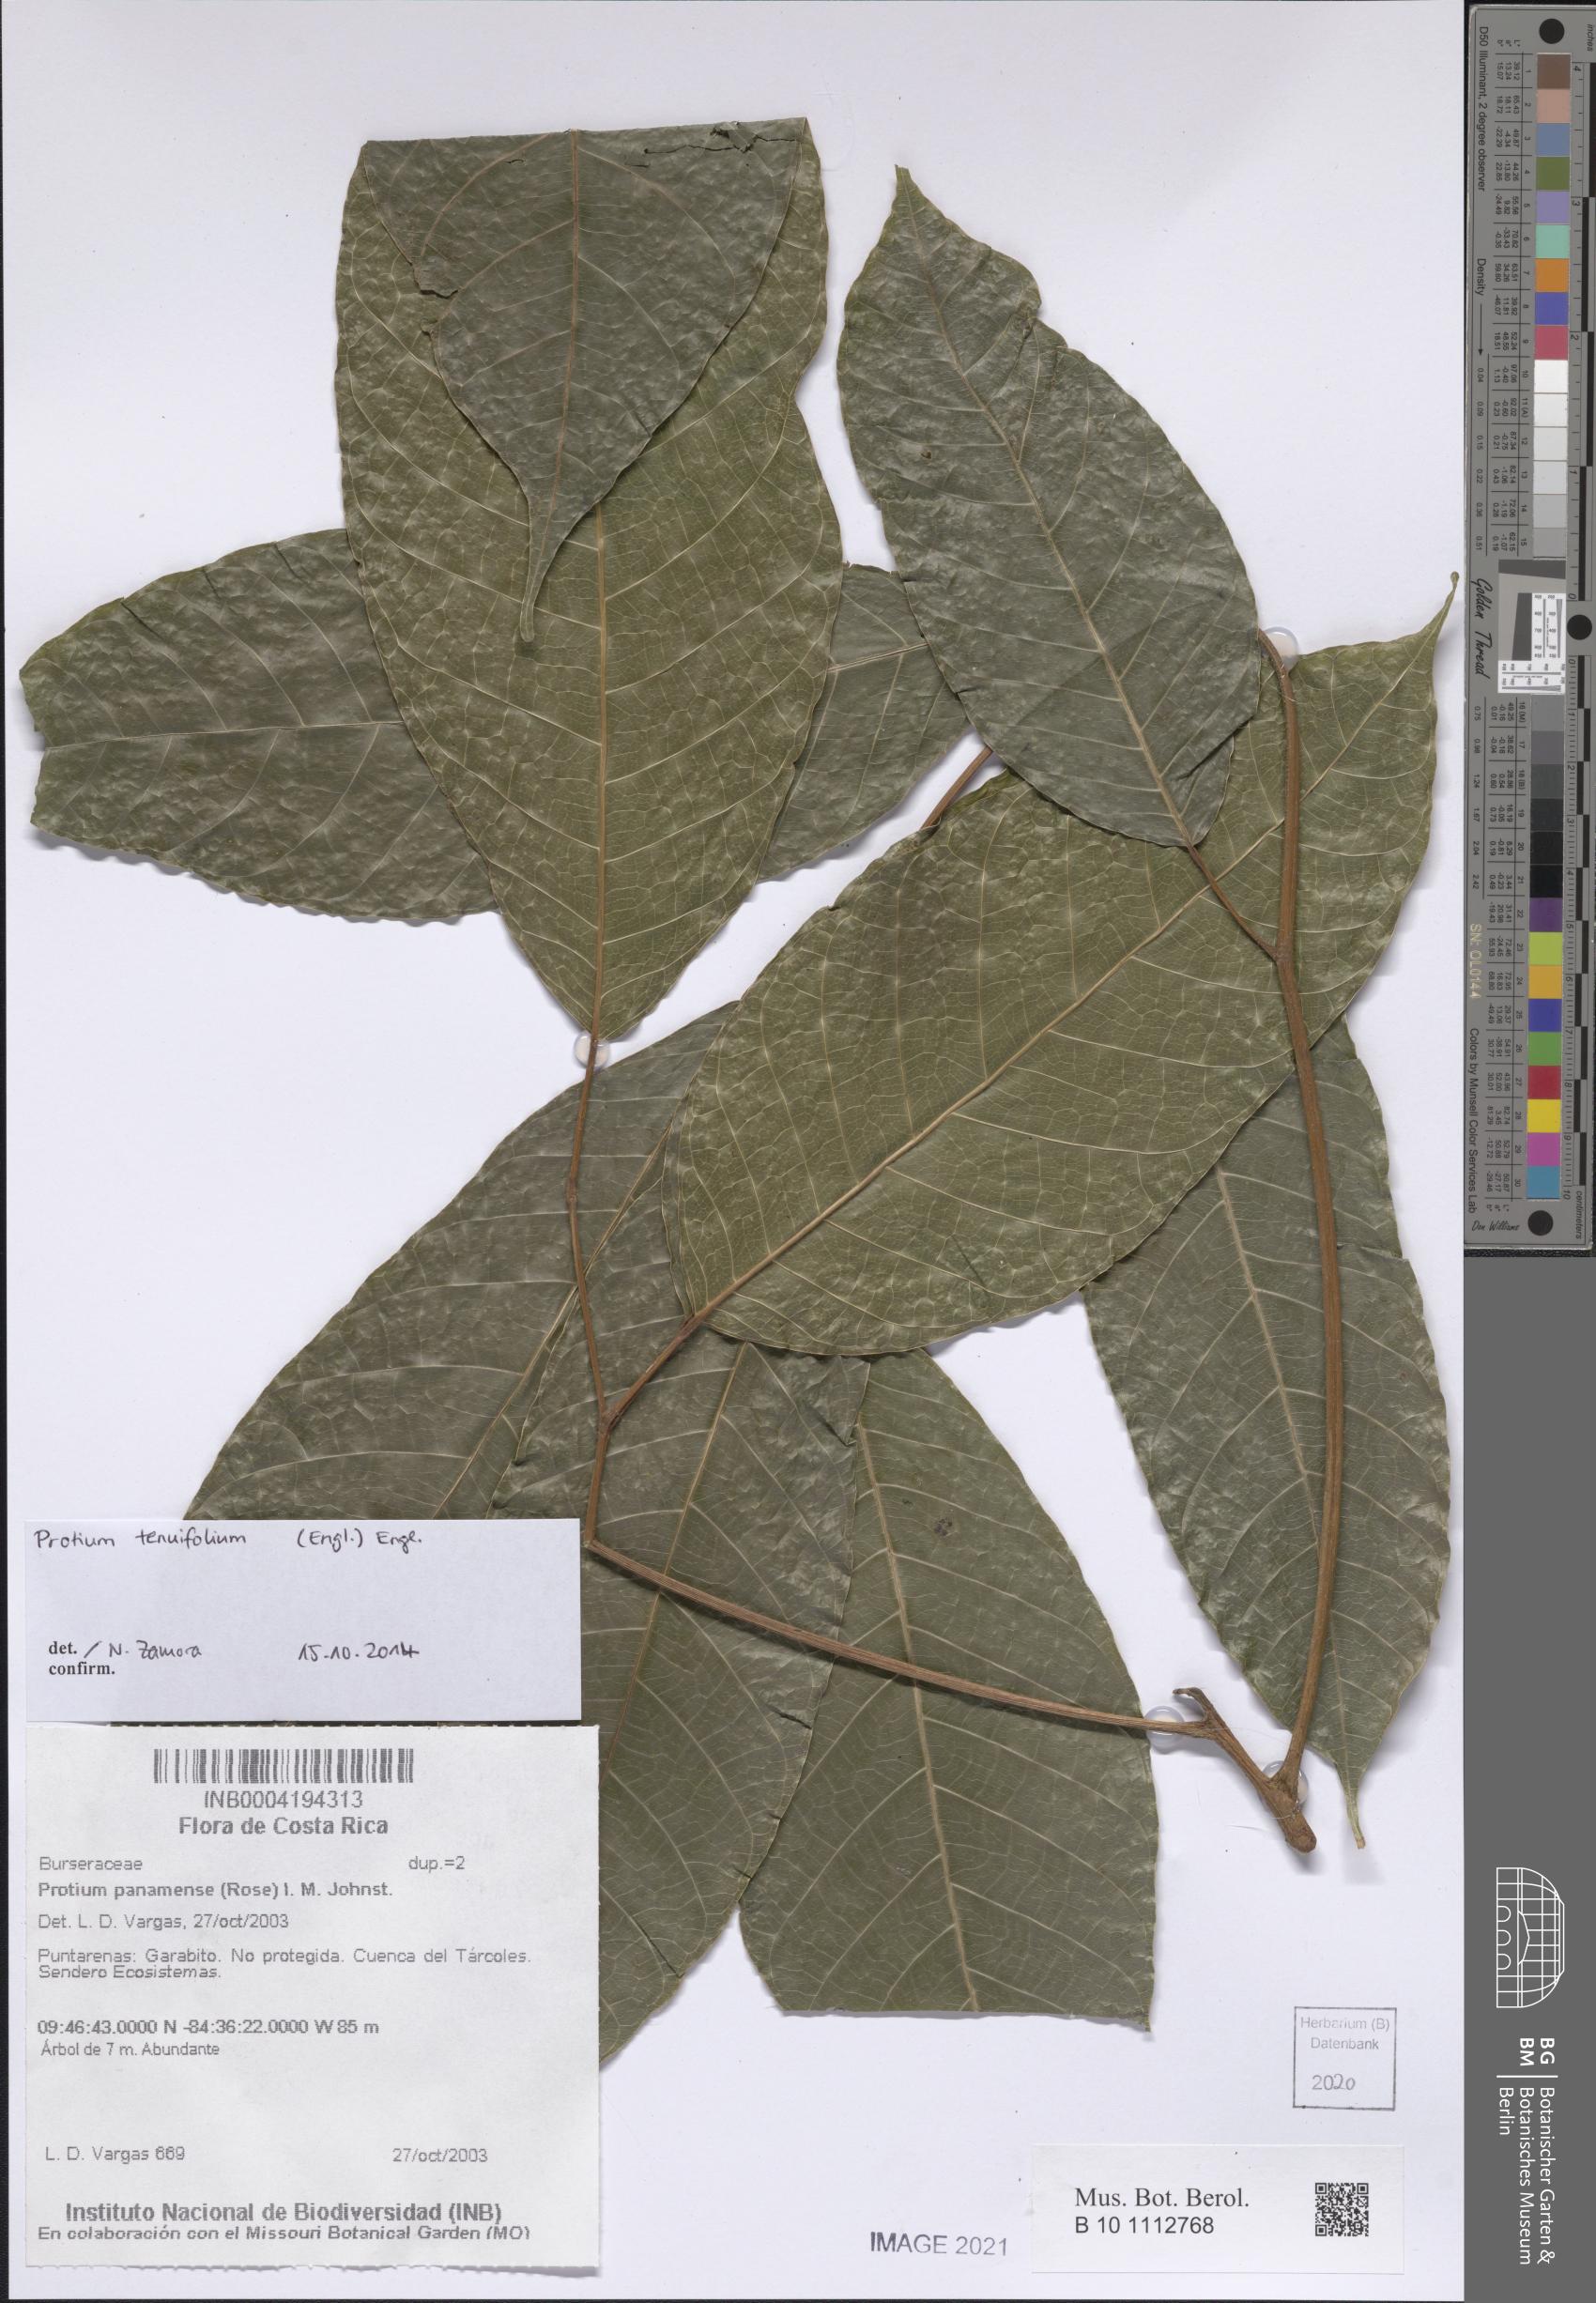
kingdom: Plantae
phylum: Tracheophyta
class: Magnoliopsida
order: Sapindales
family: Burseraceae
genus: Protium
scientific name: Protium tenuifolium
